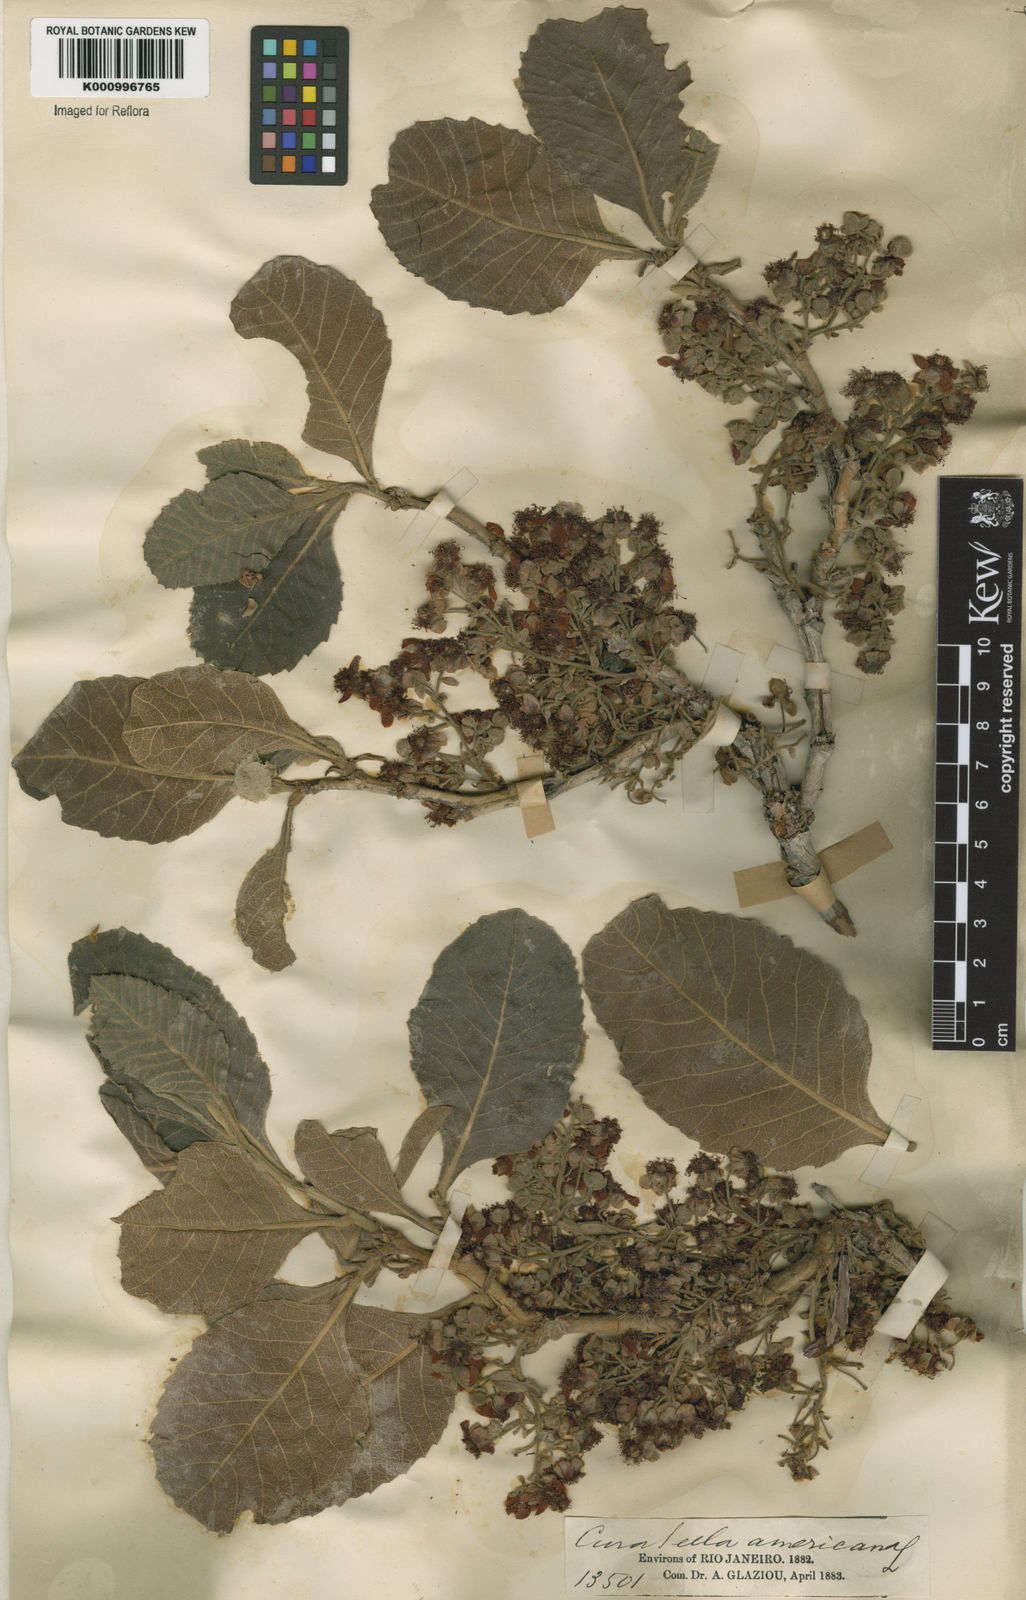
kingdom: Plantae
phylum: Tracheophyta
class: Magnoliopsida
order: Dilleniales
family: Dilleniaceae
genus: Curatella
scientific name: Curatella americana
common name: Sandpaper tree
